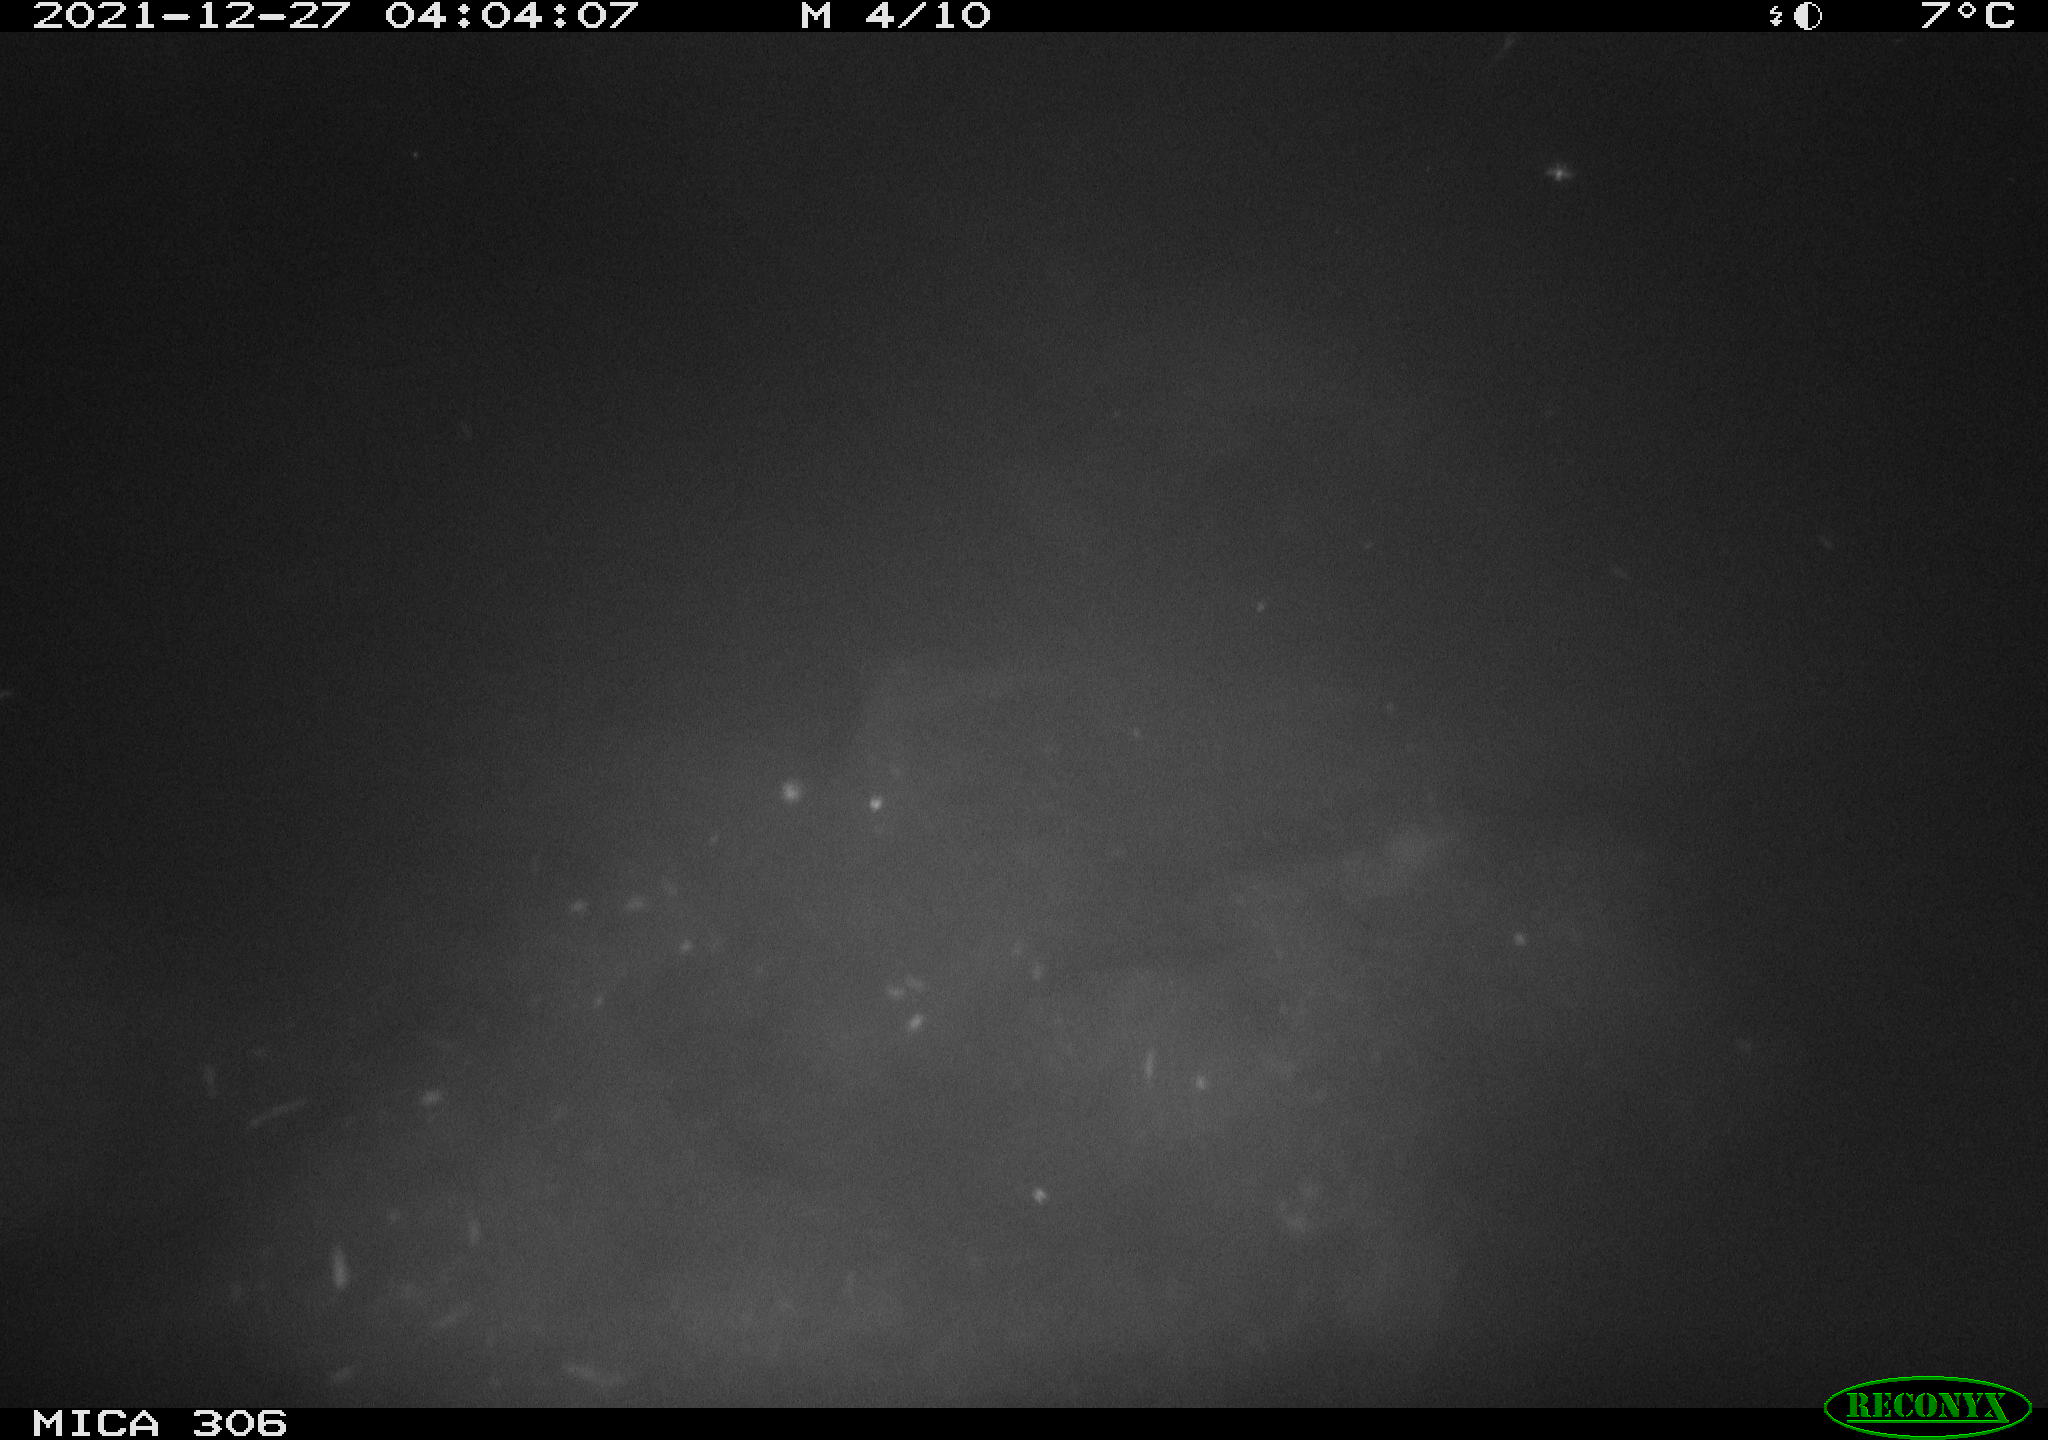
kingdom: Animalia
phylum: Chordata
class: Aves
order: Anseriformes
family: Anatidae
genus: Anas
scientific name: Anas
